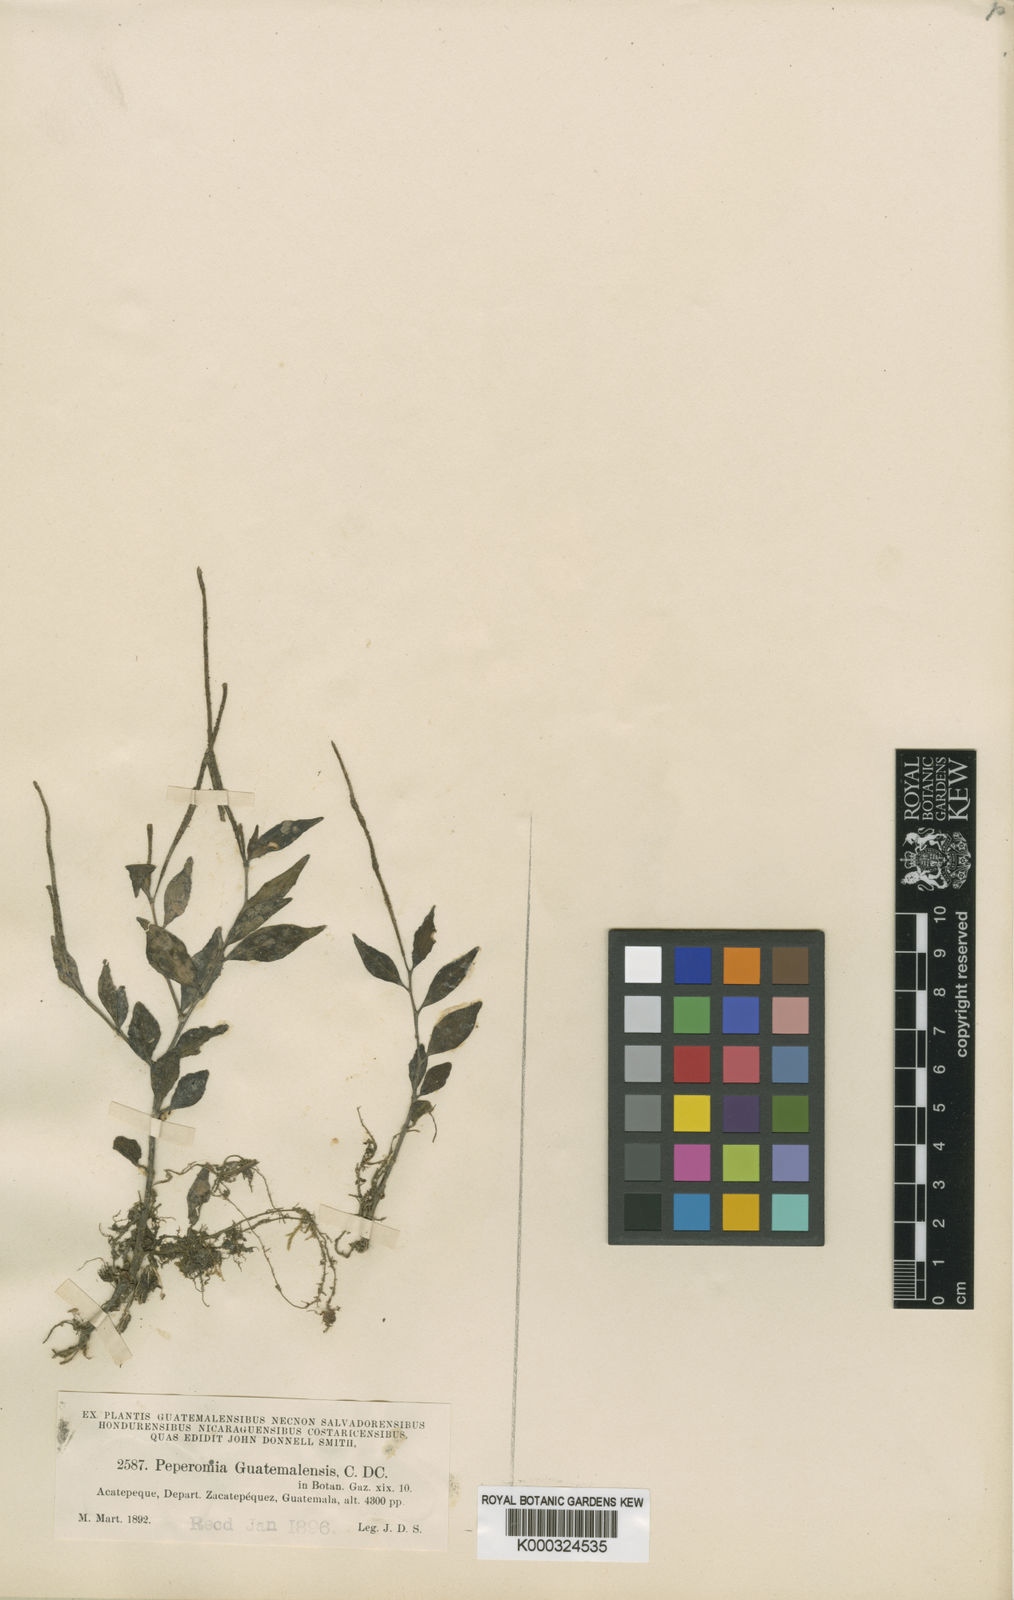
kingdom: Plantae
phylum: Tracheophyta
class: Magnoliopsida
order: Piperales
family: Piperaceae
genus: Peperomia
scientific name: Peperomia guatemalensis
